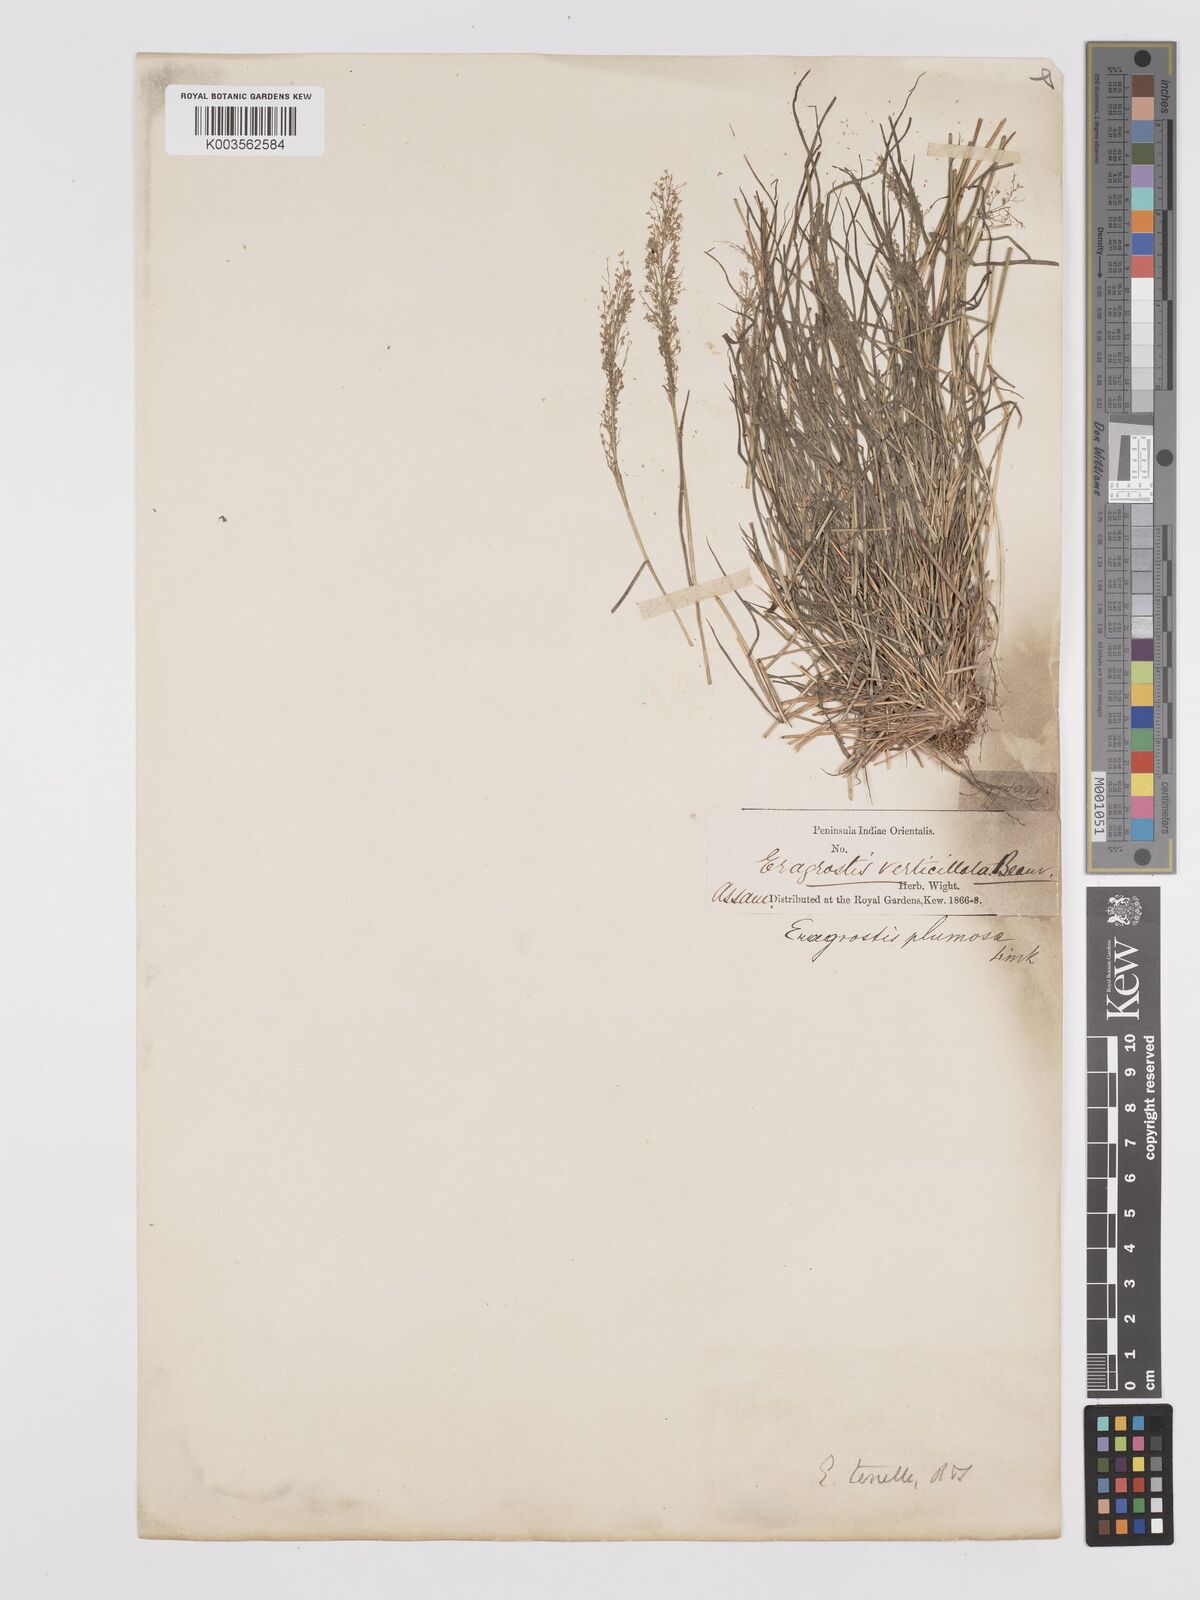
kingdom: Plantae
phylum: Tracheophyta
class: Liliopsida
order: Poales
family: Poaceae
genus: Eragrostis
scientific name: Eragrostis tenella
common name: Japanese lovegrass
